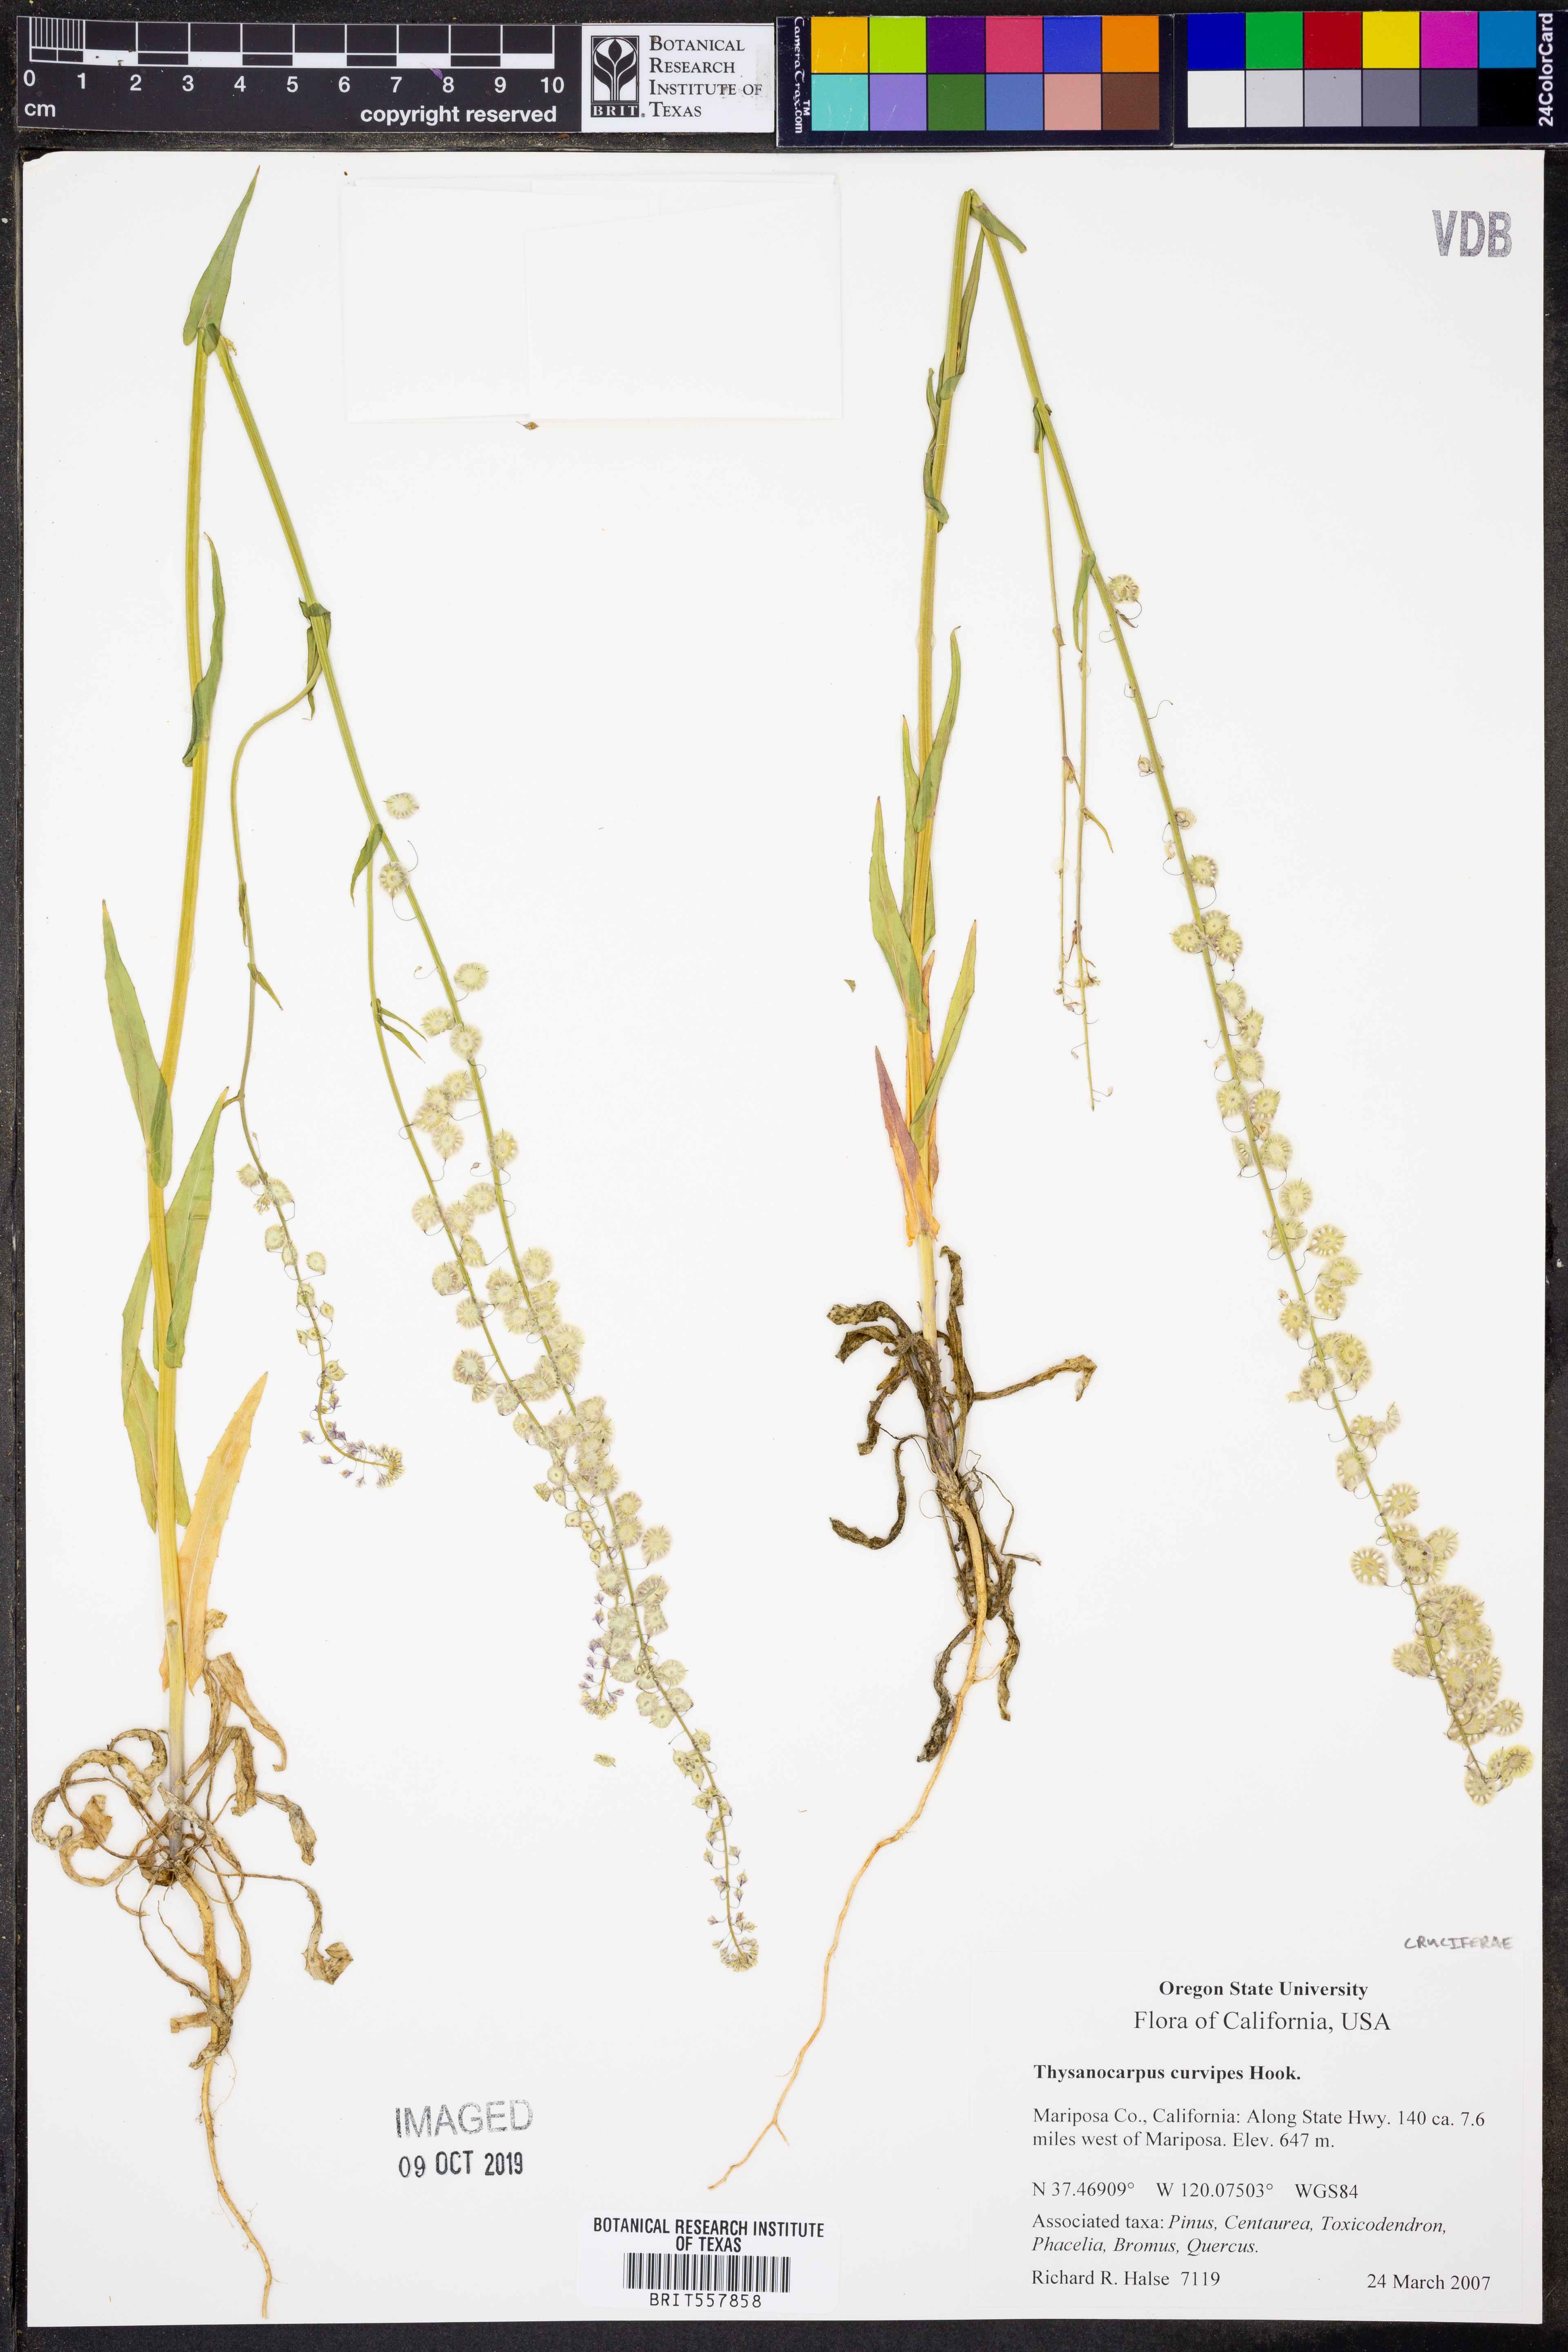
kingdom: Plantae
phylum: Tracheophyta
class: Magnoliopsida
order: Brassicales
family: Brassicaceae
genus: Thysanocarpus
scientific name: Thysanocarpus curvipes
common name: Sand fringepod
